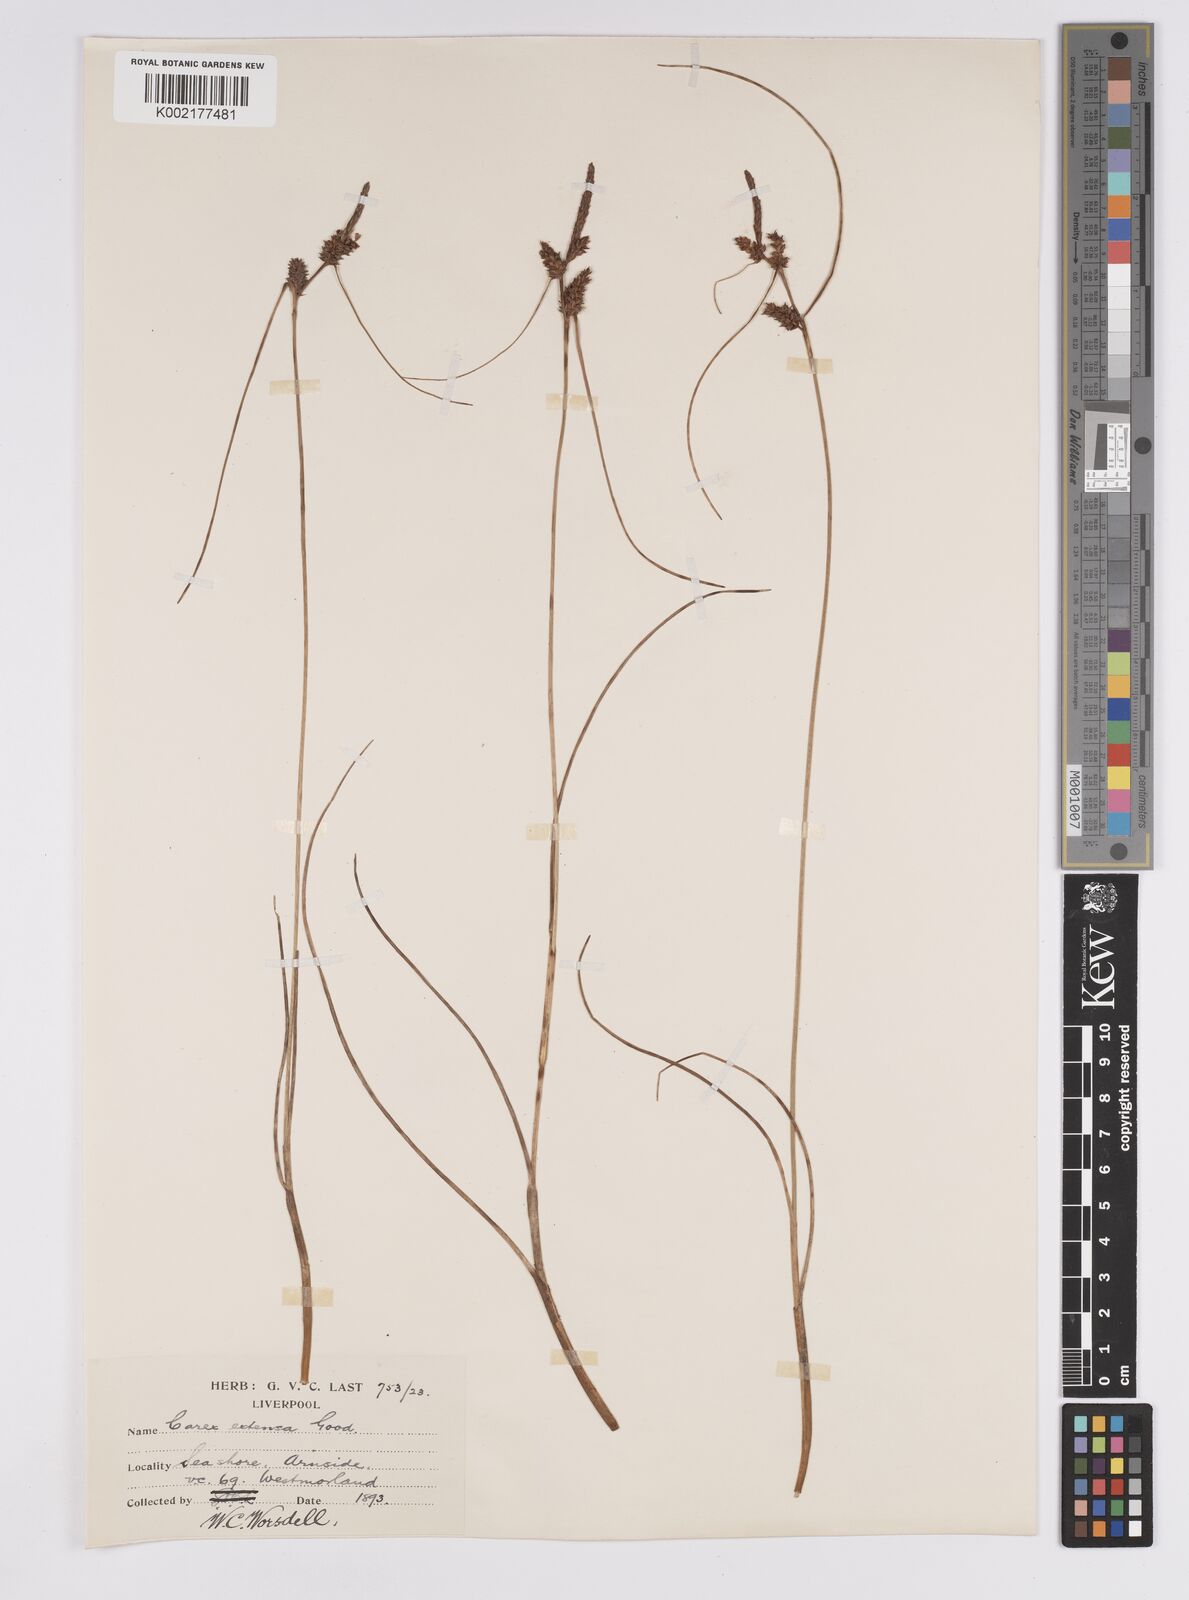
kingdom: Plantae
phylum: Tracheophyta
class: Liliopsida
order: Poales
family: Cyperaceae
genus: Carex
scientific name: Carex extensa
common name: Long-bracted sedge
